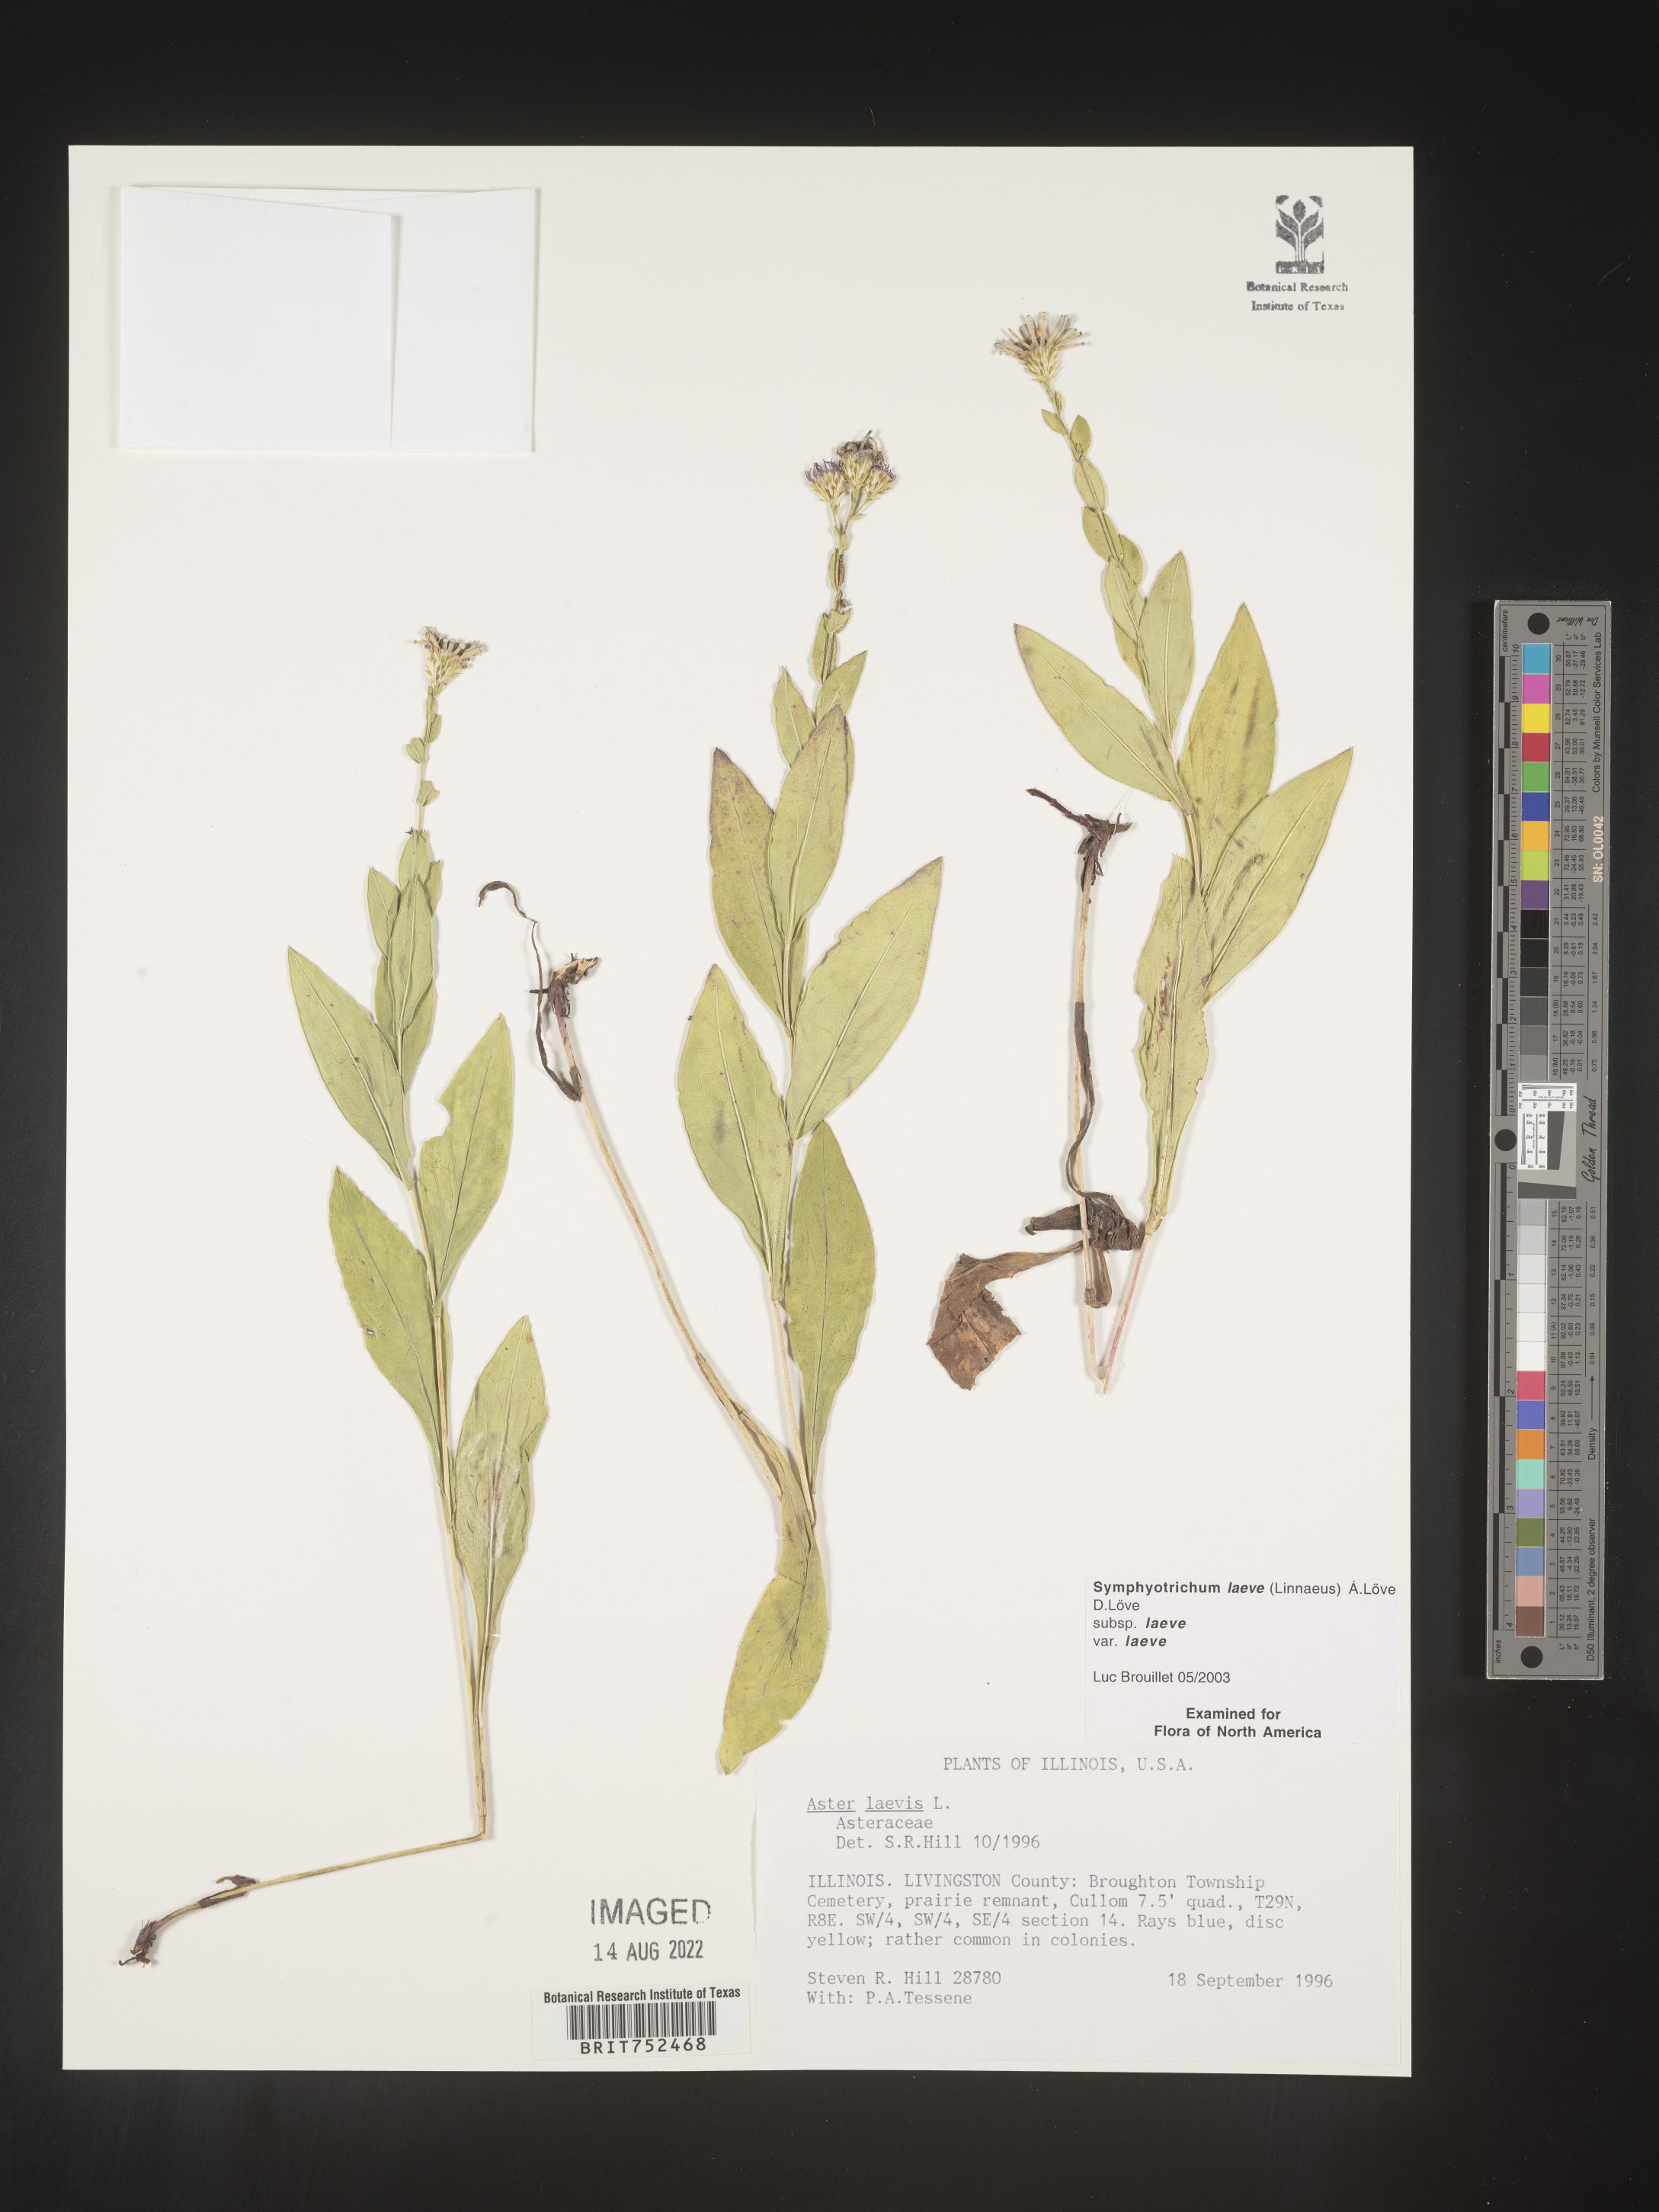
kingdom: Plantae
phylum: Tracheophyta
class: Magnoliopsida
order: Asterales
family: Asteraceae
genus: Symphyotrichum
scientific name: Symphyotrichum laeve
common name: Glaucous aster
